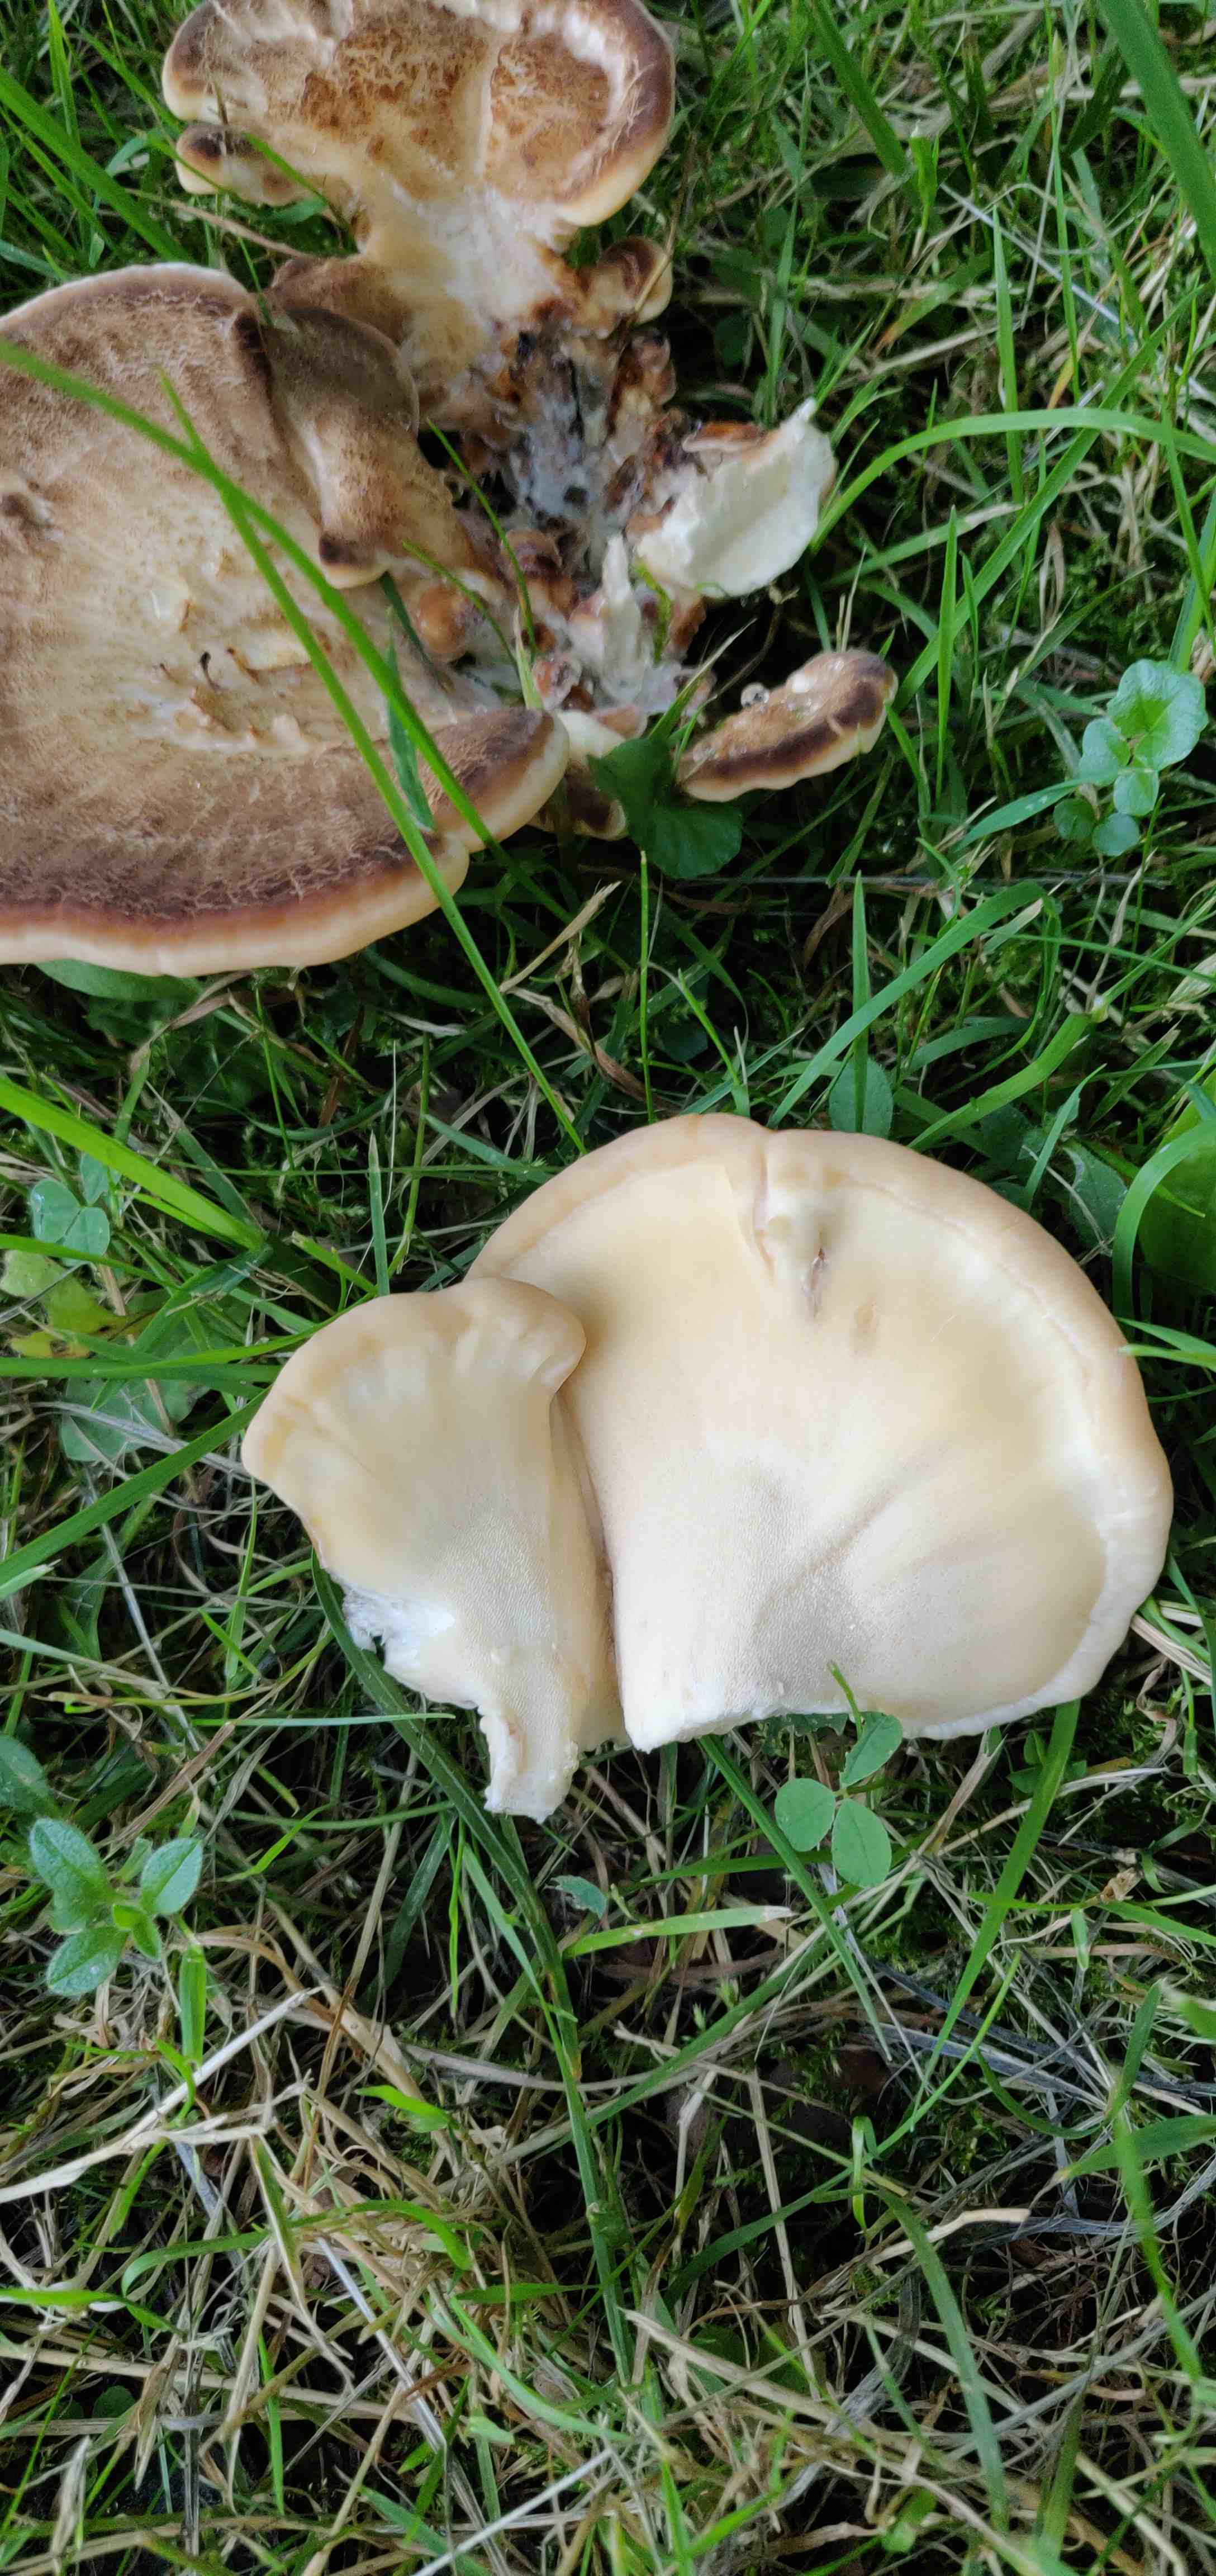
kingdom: Fungi
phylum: Basidiomycota
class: Agaricomycetes
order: Polyporales
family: Meripilaceae
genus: Meripilus
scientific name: Meripilus giganteus
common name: kæmpeporesvamp
